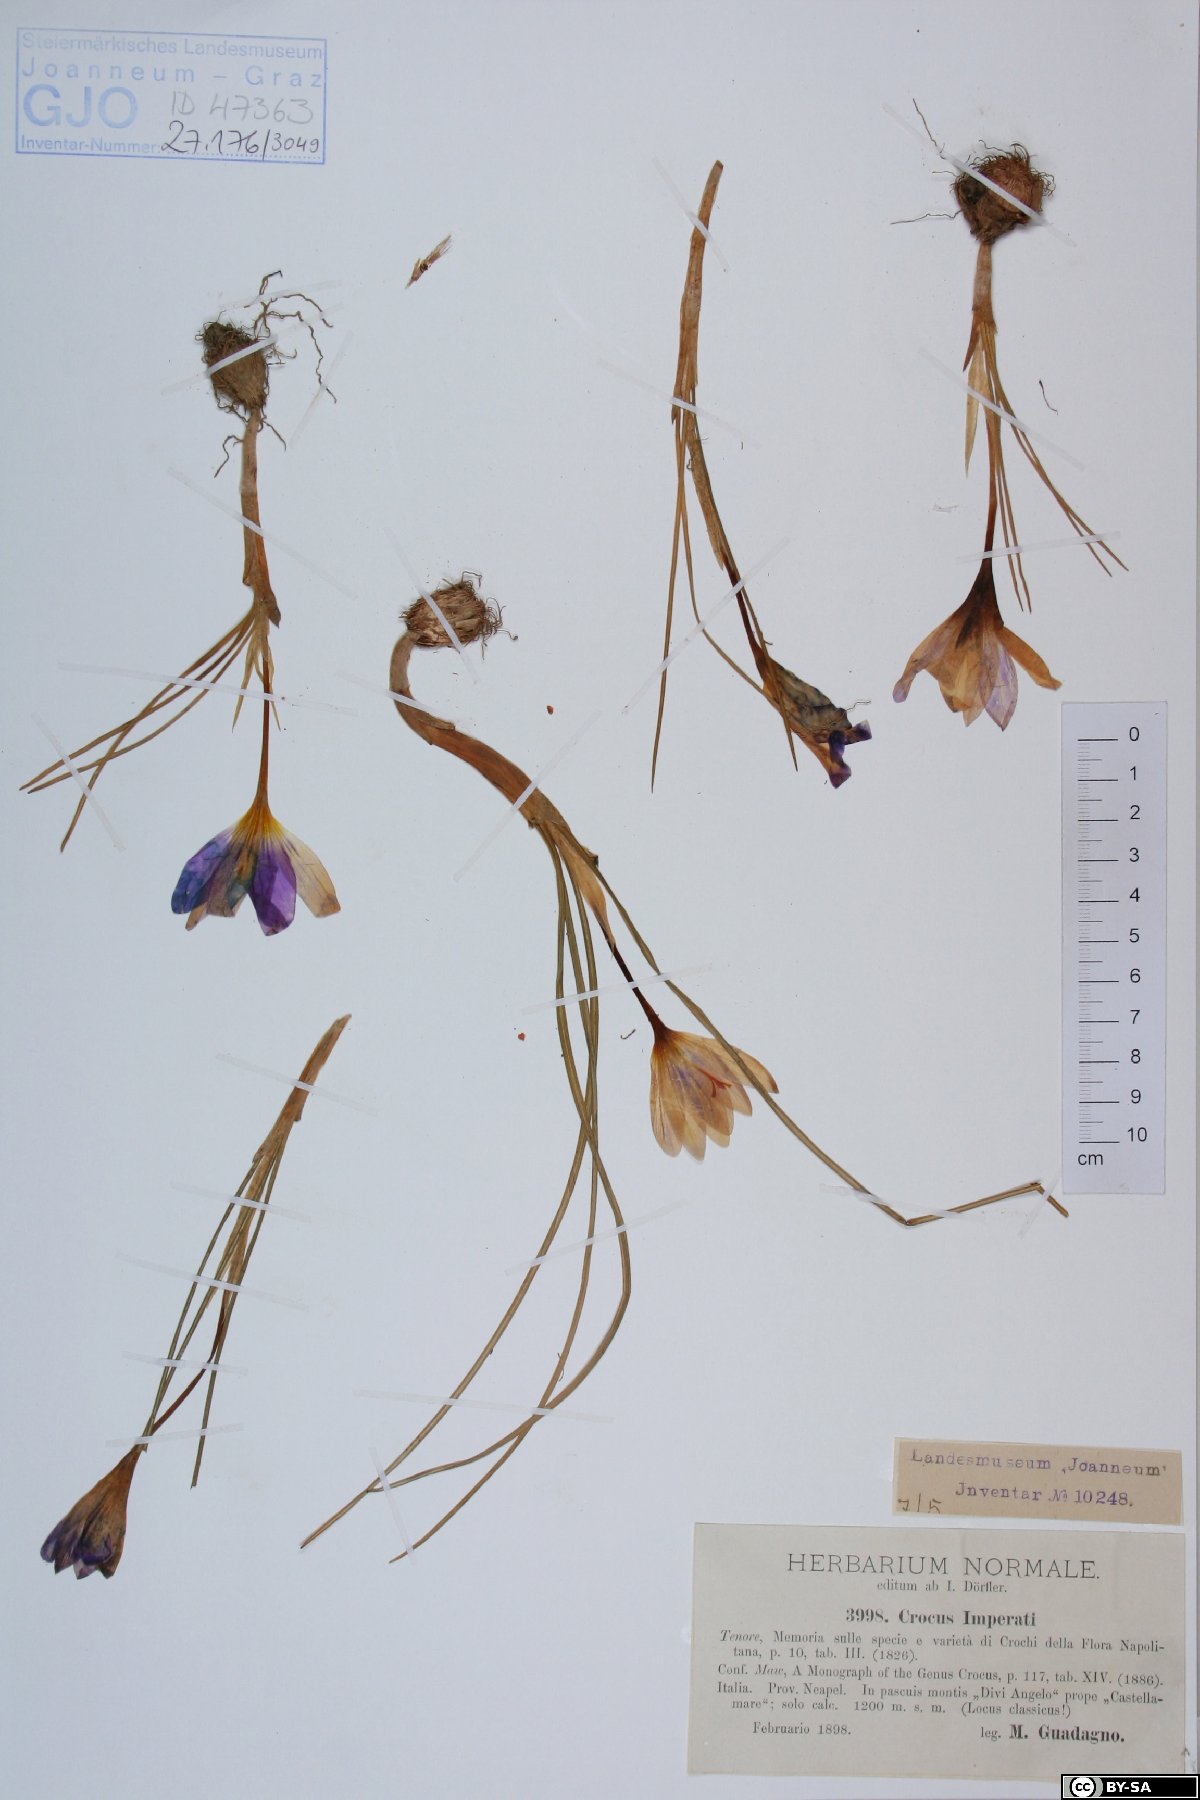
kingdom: Plantae
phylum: Tracheophyta
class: Liliopsida
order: Asparagales
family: Iridaceae
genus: Crocus
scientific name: Crocus imperati
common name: Early crocus
